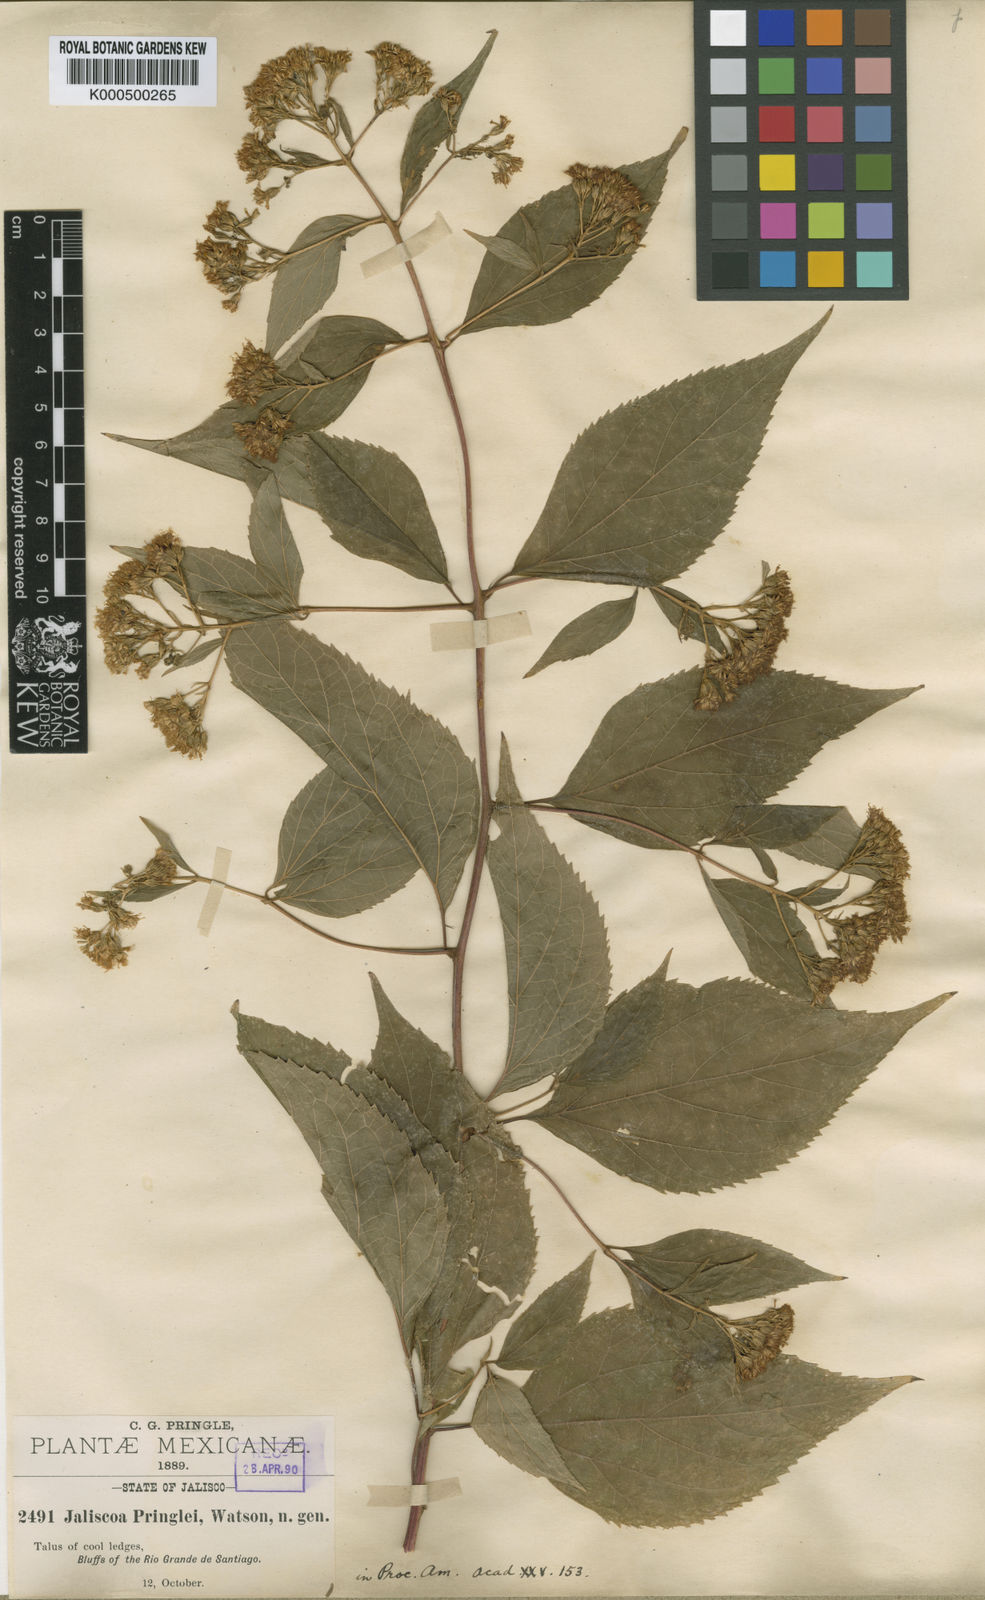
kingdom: Plantae
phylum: Tracheophyta
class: Magnoliopsida
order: Asterales
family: Asteraceae
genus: Jaliscoa
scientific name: Jaliscoa pringlei
